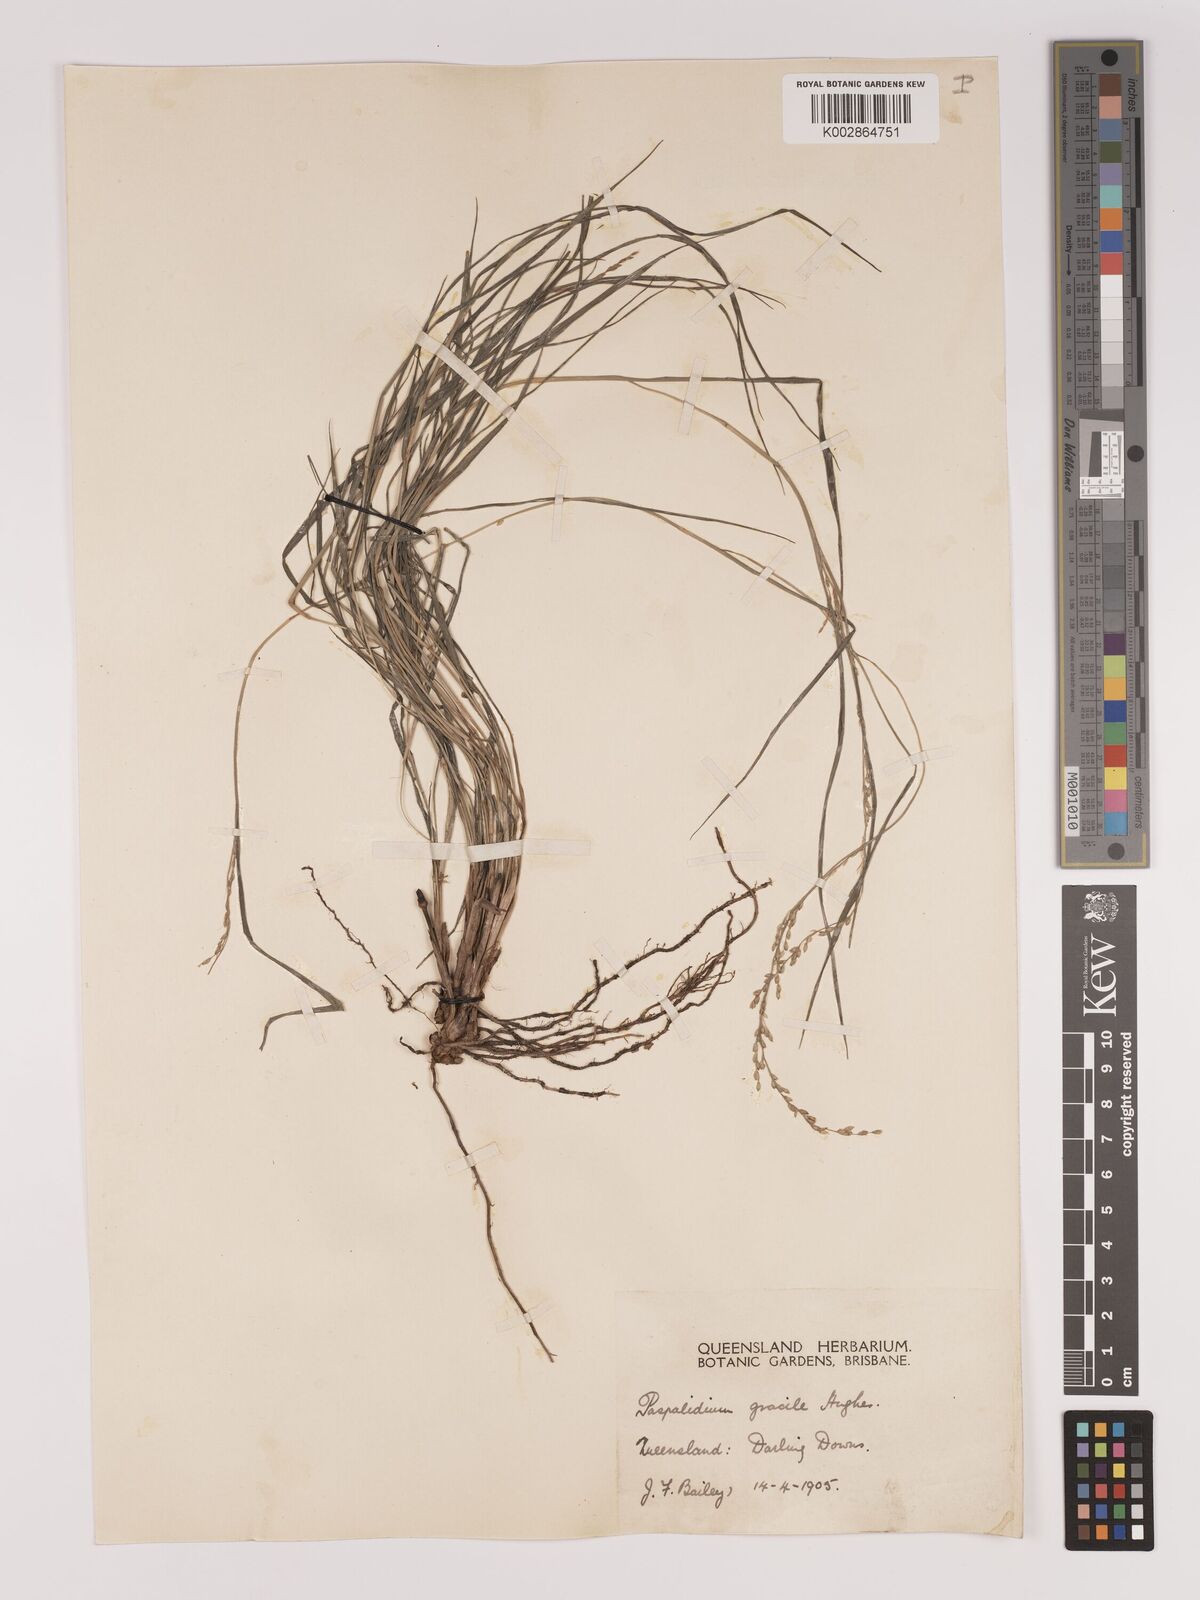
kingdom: Plantae
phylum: Tracheophyta
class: Liliopsida
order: Poales
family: Poaceae
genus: Setaria
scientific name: Setaria brownii
